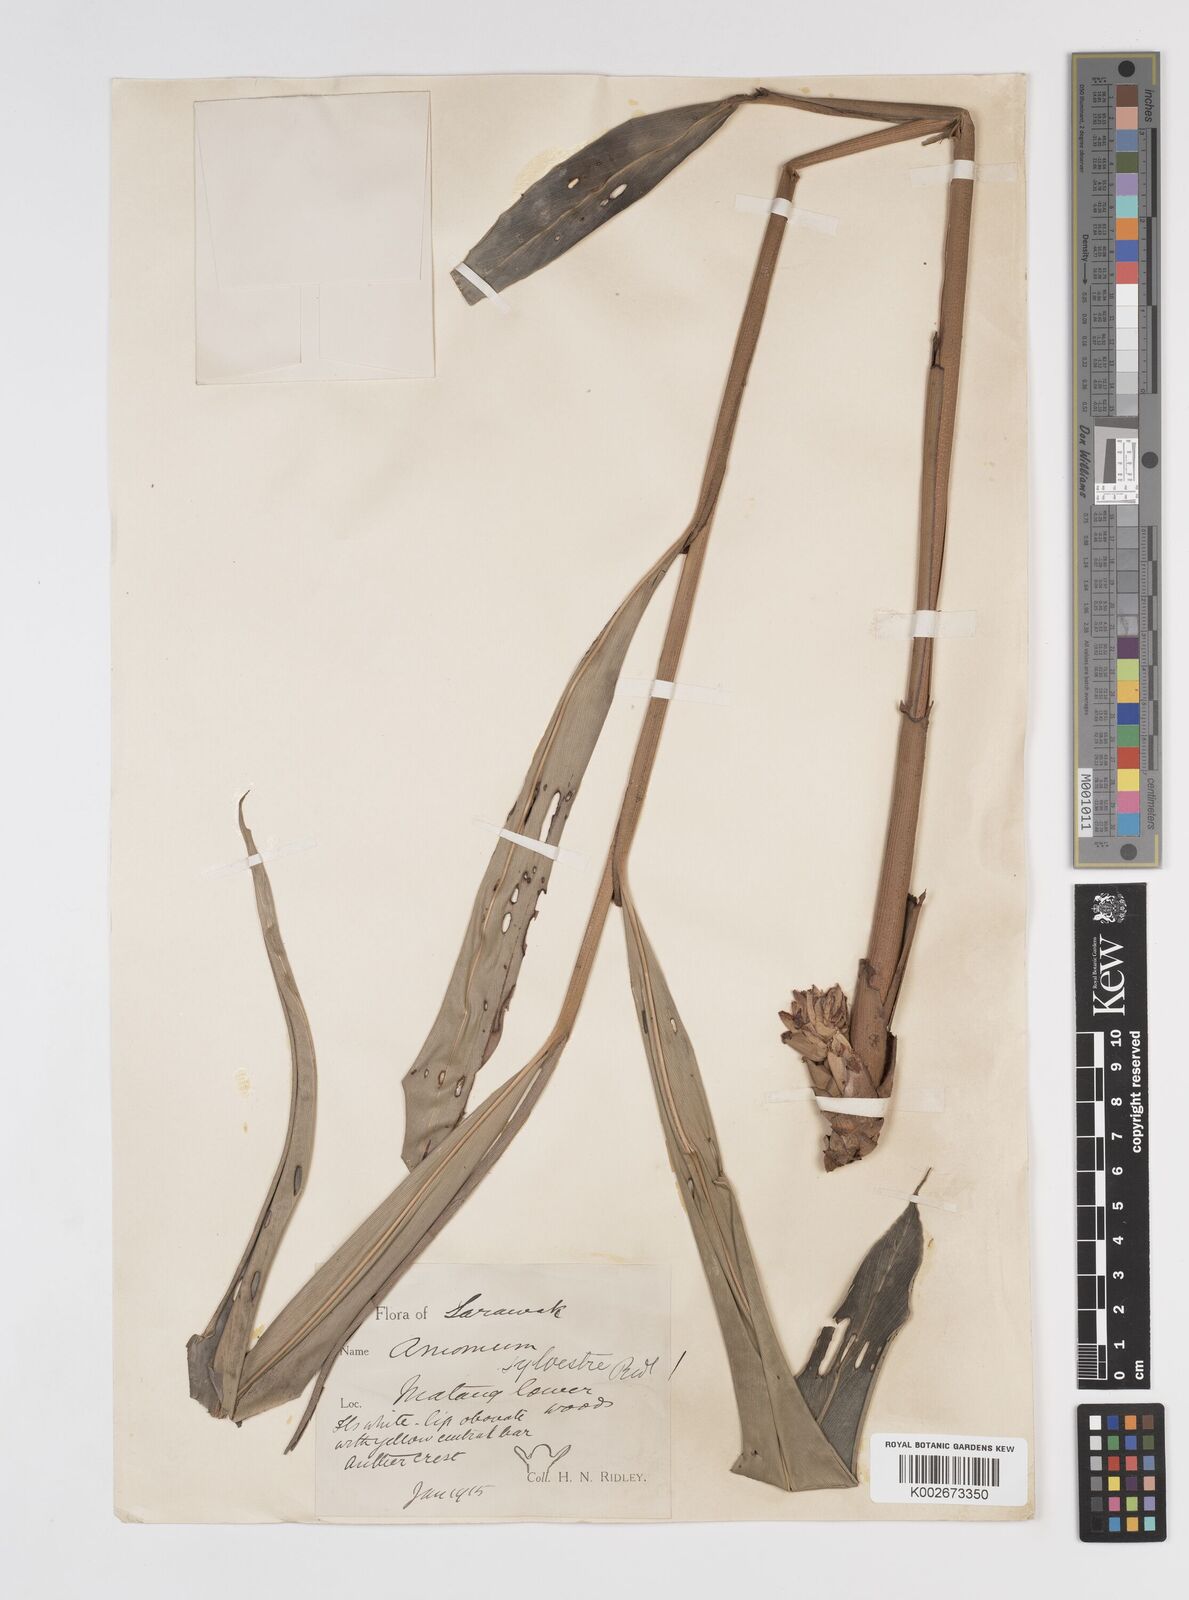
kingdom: Plantae
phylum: Tracheophyta
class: Liliopsida
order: Zingiberales
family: Zingiberaceae
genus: Amomum
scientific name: Amomum
